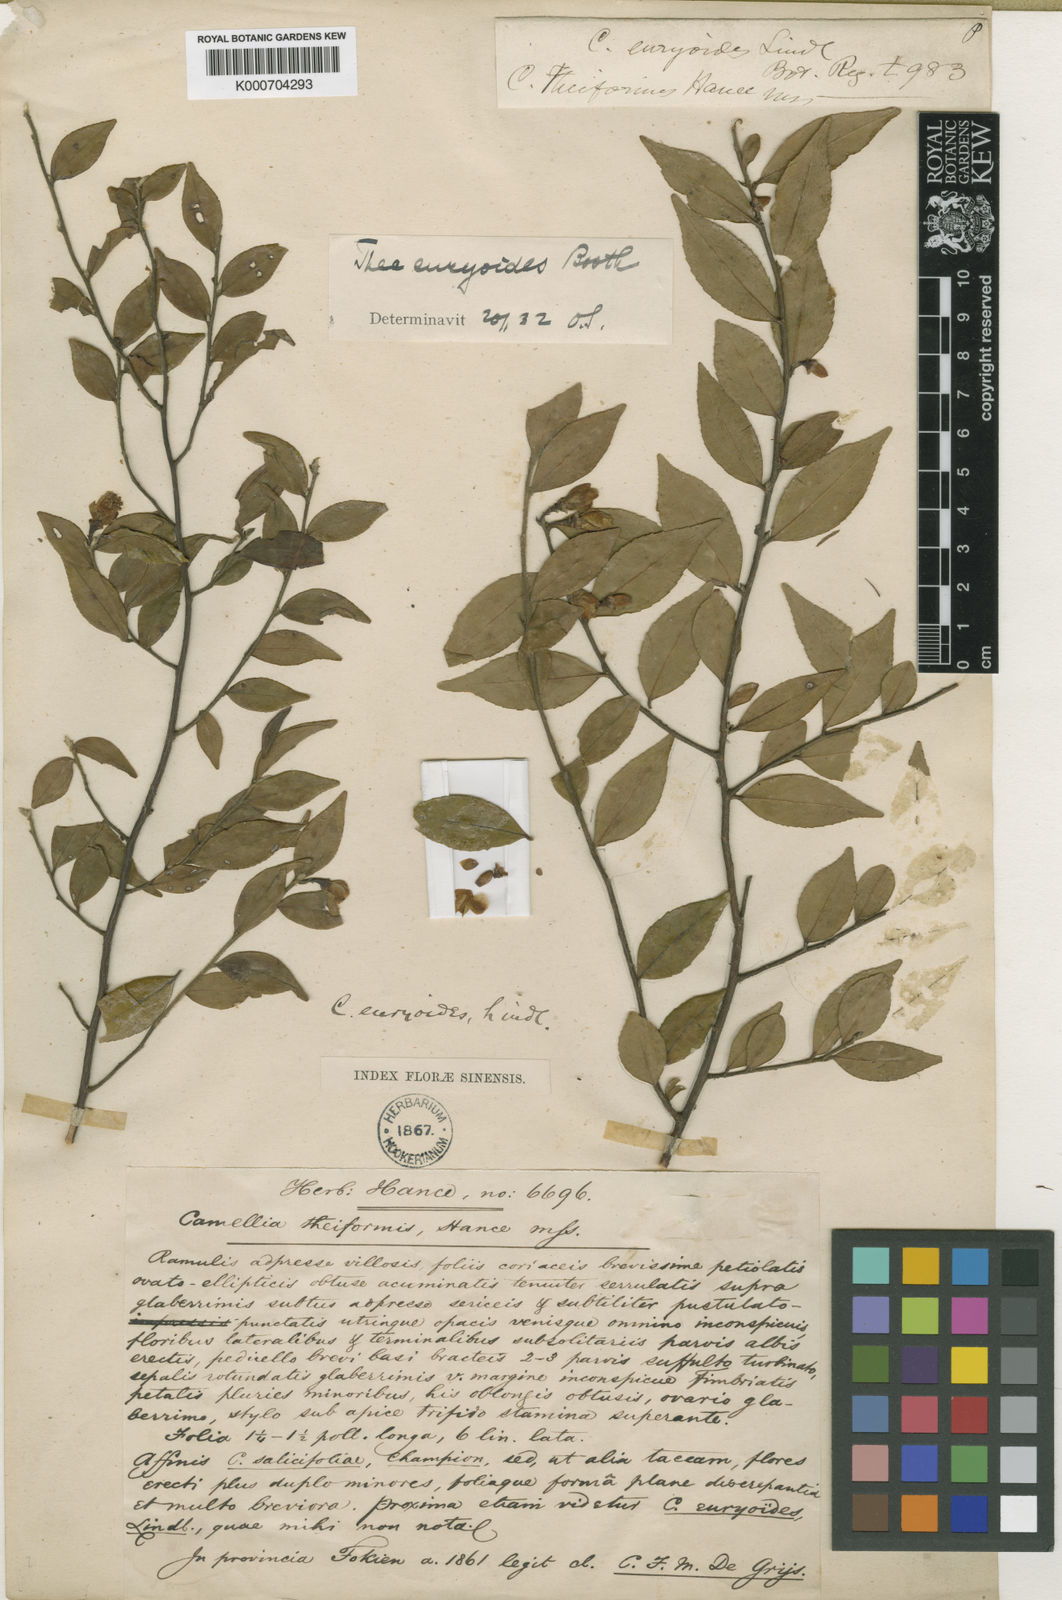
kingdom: Plantae
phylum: Tracheophyta
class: Magnoliopsida
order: Ericales
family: Theaceae
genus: Camellia
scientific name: Camellia euryoides
